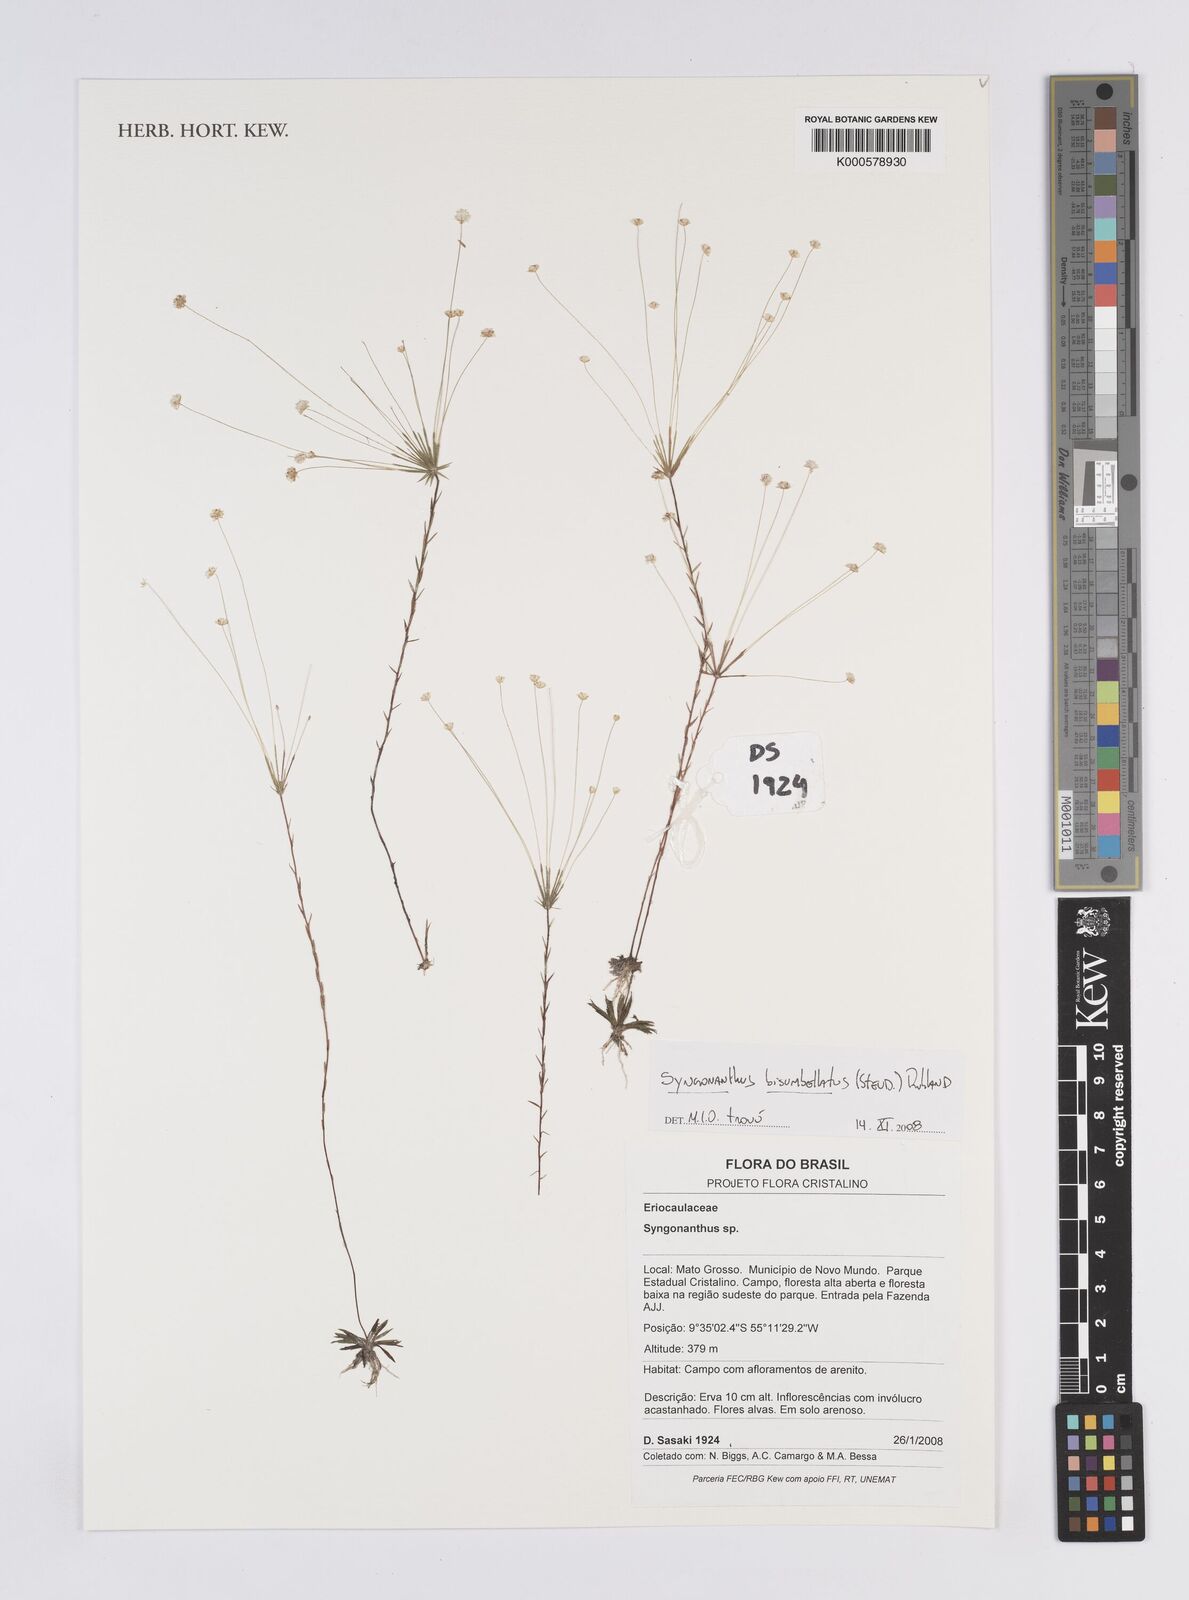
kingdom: Plantae
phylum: Tracheophyta
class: Liliopsida
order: Poales
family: Eriocaulaceae
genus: Syngonanthus
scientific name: Syngonanthus bisumbellatus
